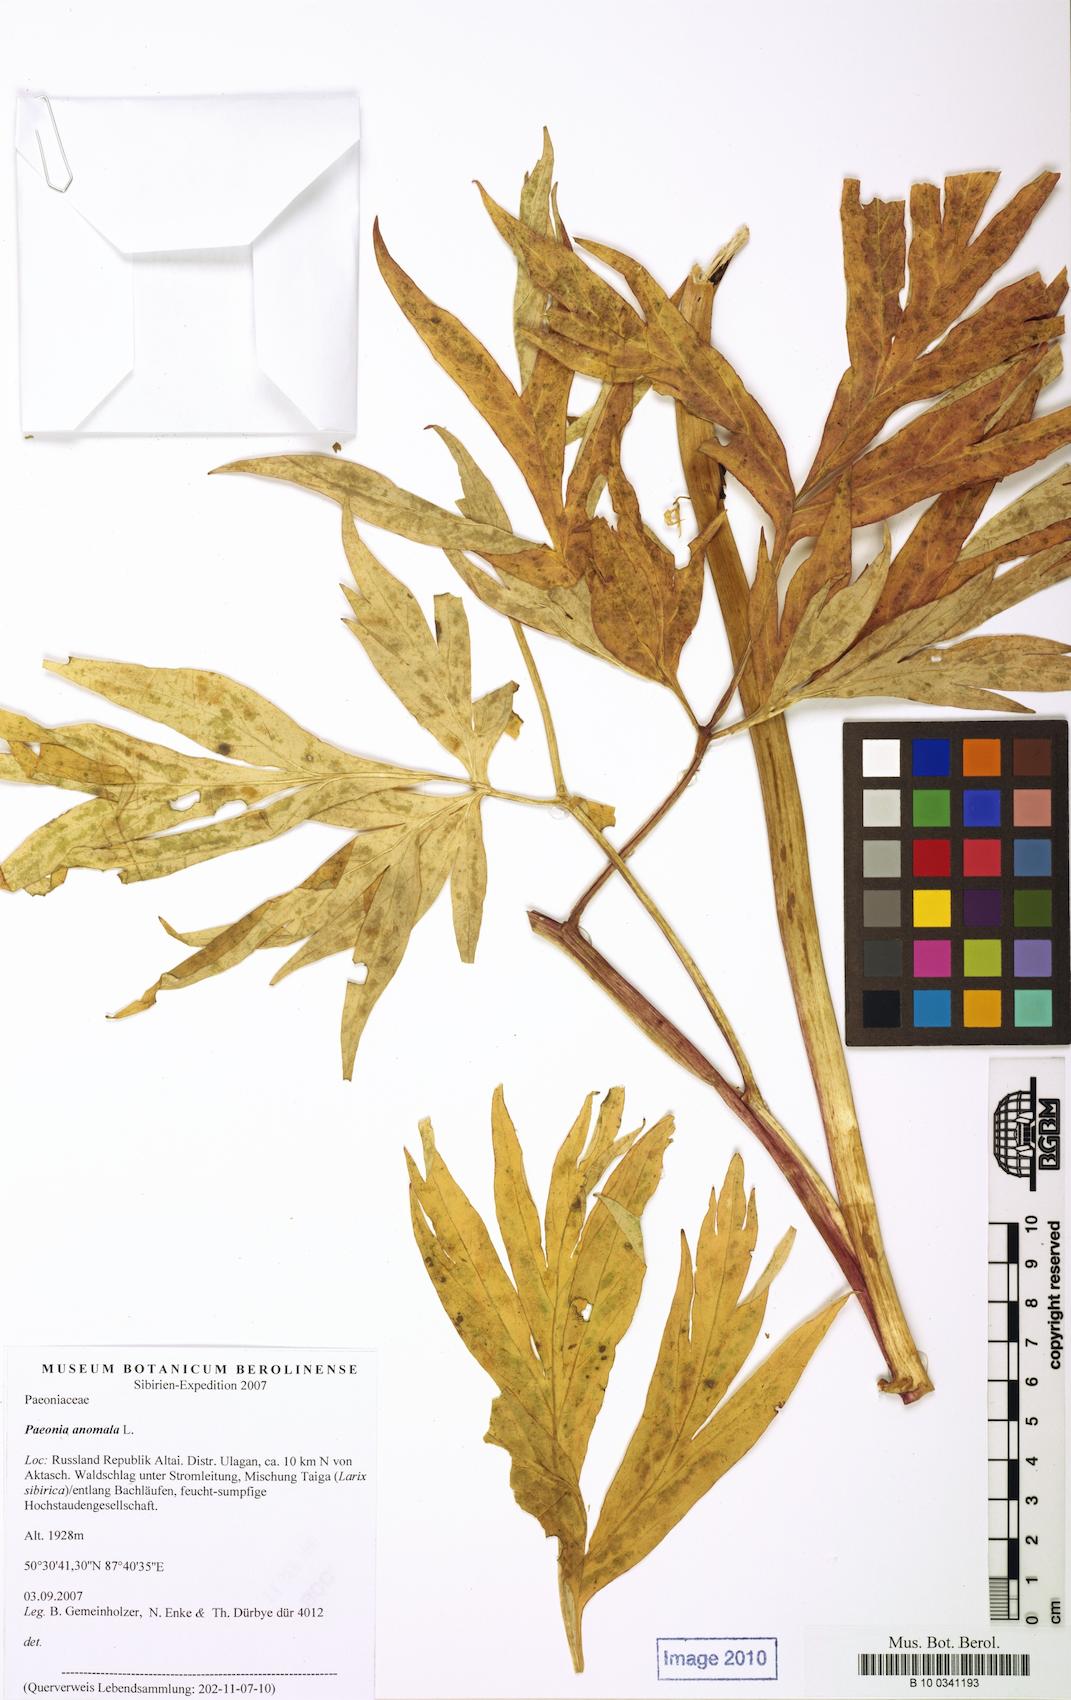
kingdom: Plantae
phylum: Tracheophyta
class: Magnoliopsida
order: Saxifragales
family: Paeoniaceae
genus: Paeonia
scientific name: Paeonia anomala
